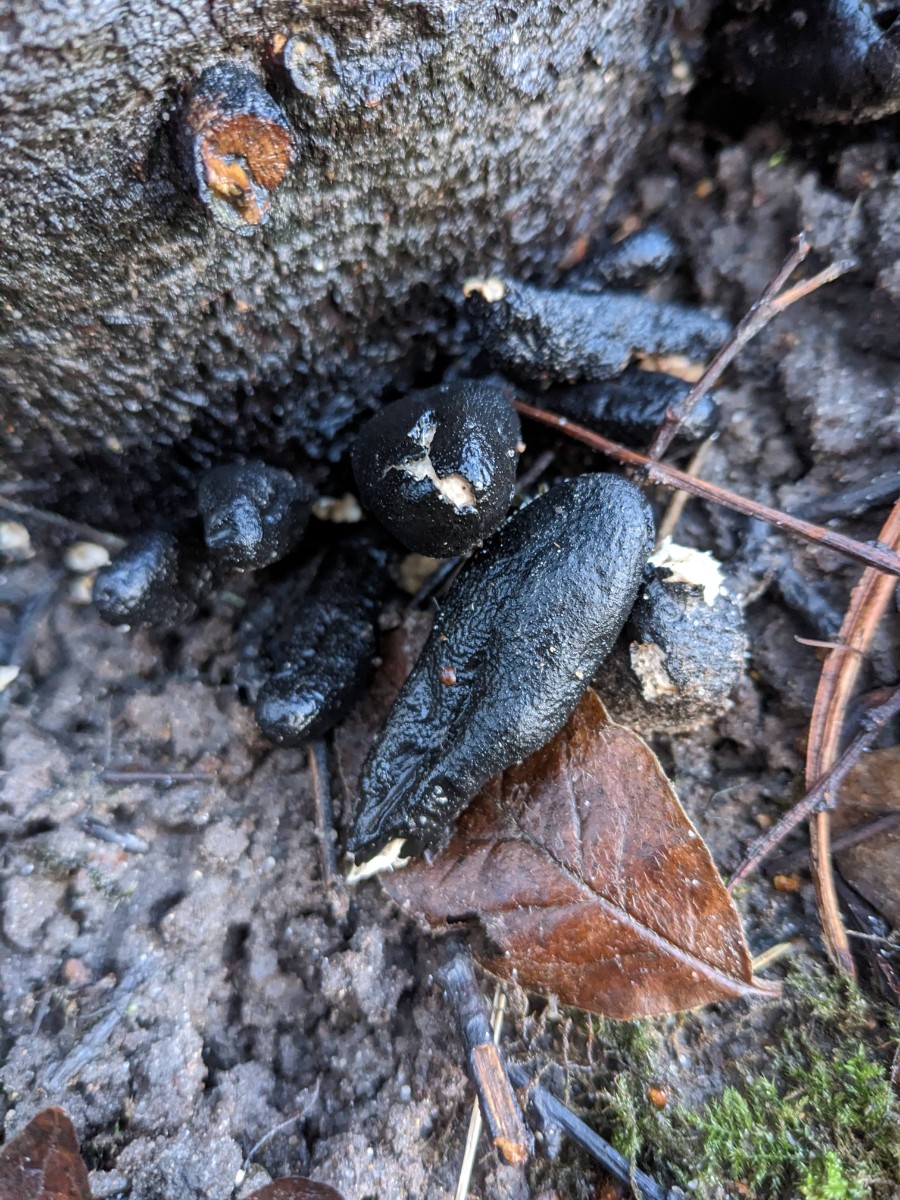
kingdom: Fungi
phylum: Ascomycota
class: Sordariomycetes
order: Xylariales
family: Xylariaceae
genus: Xylaria
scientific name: Xylaria polymorpha
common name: kølle-stødsvamp
